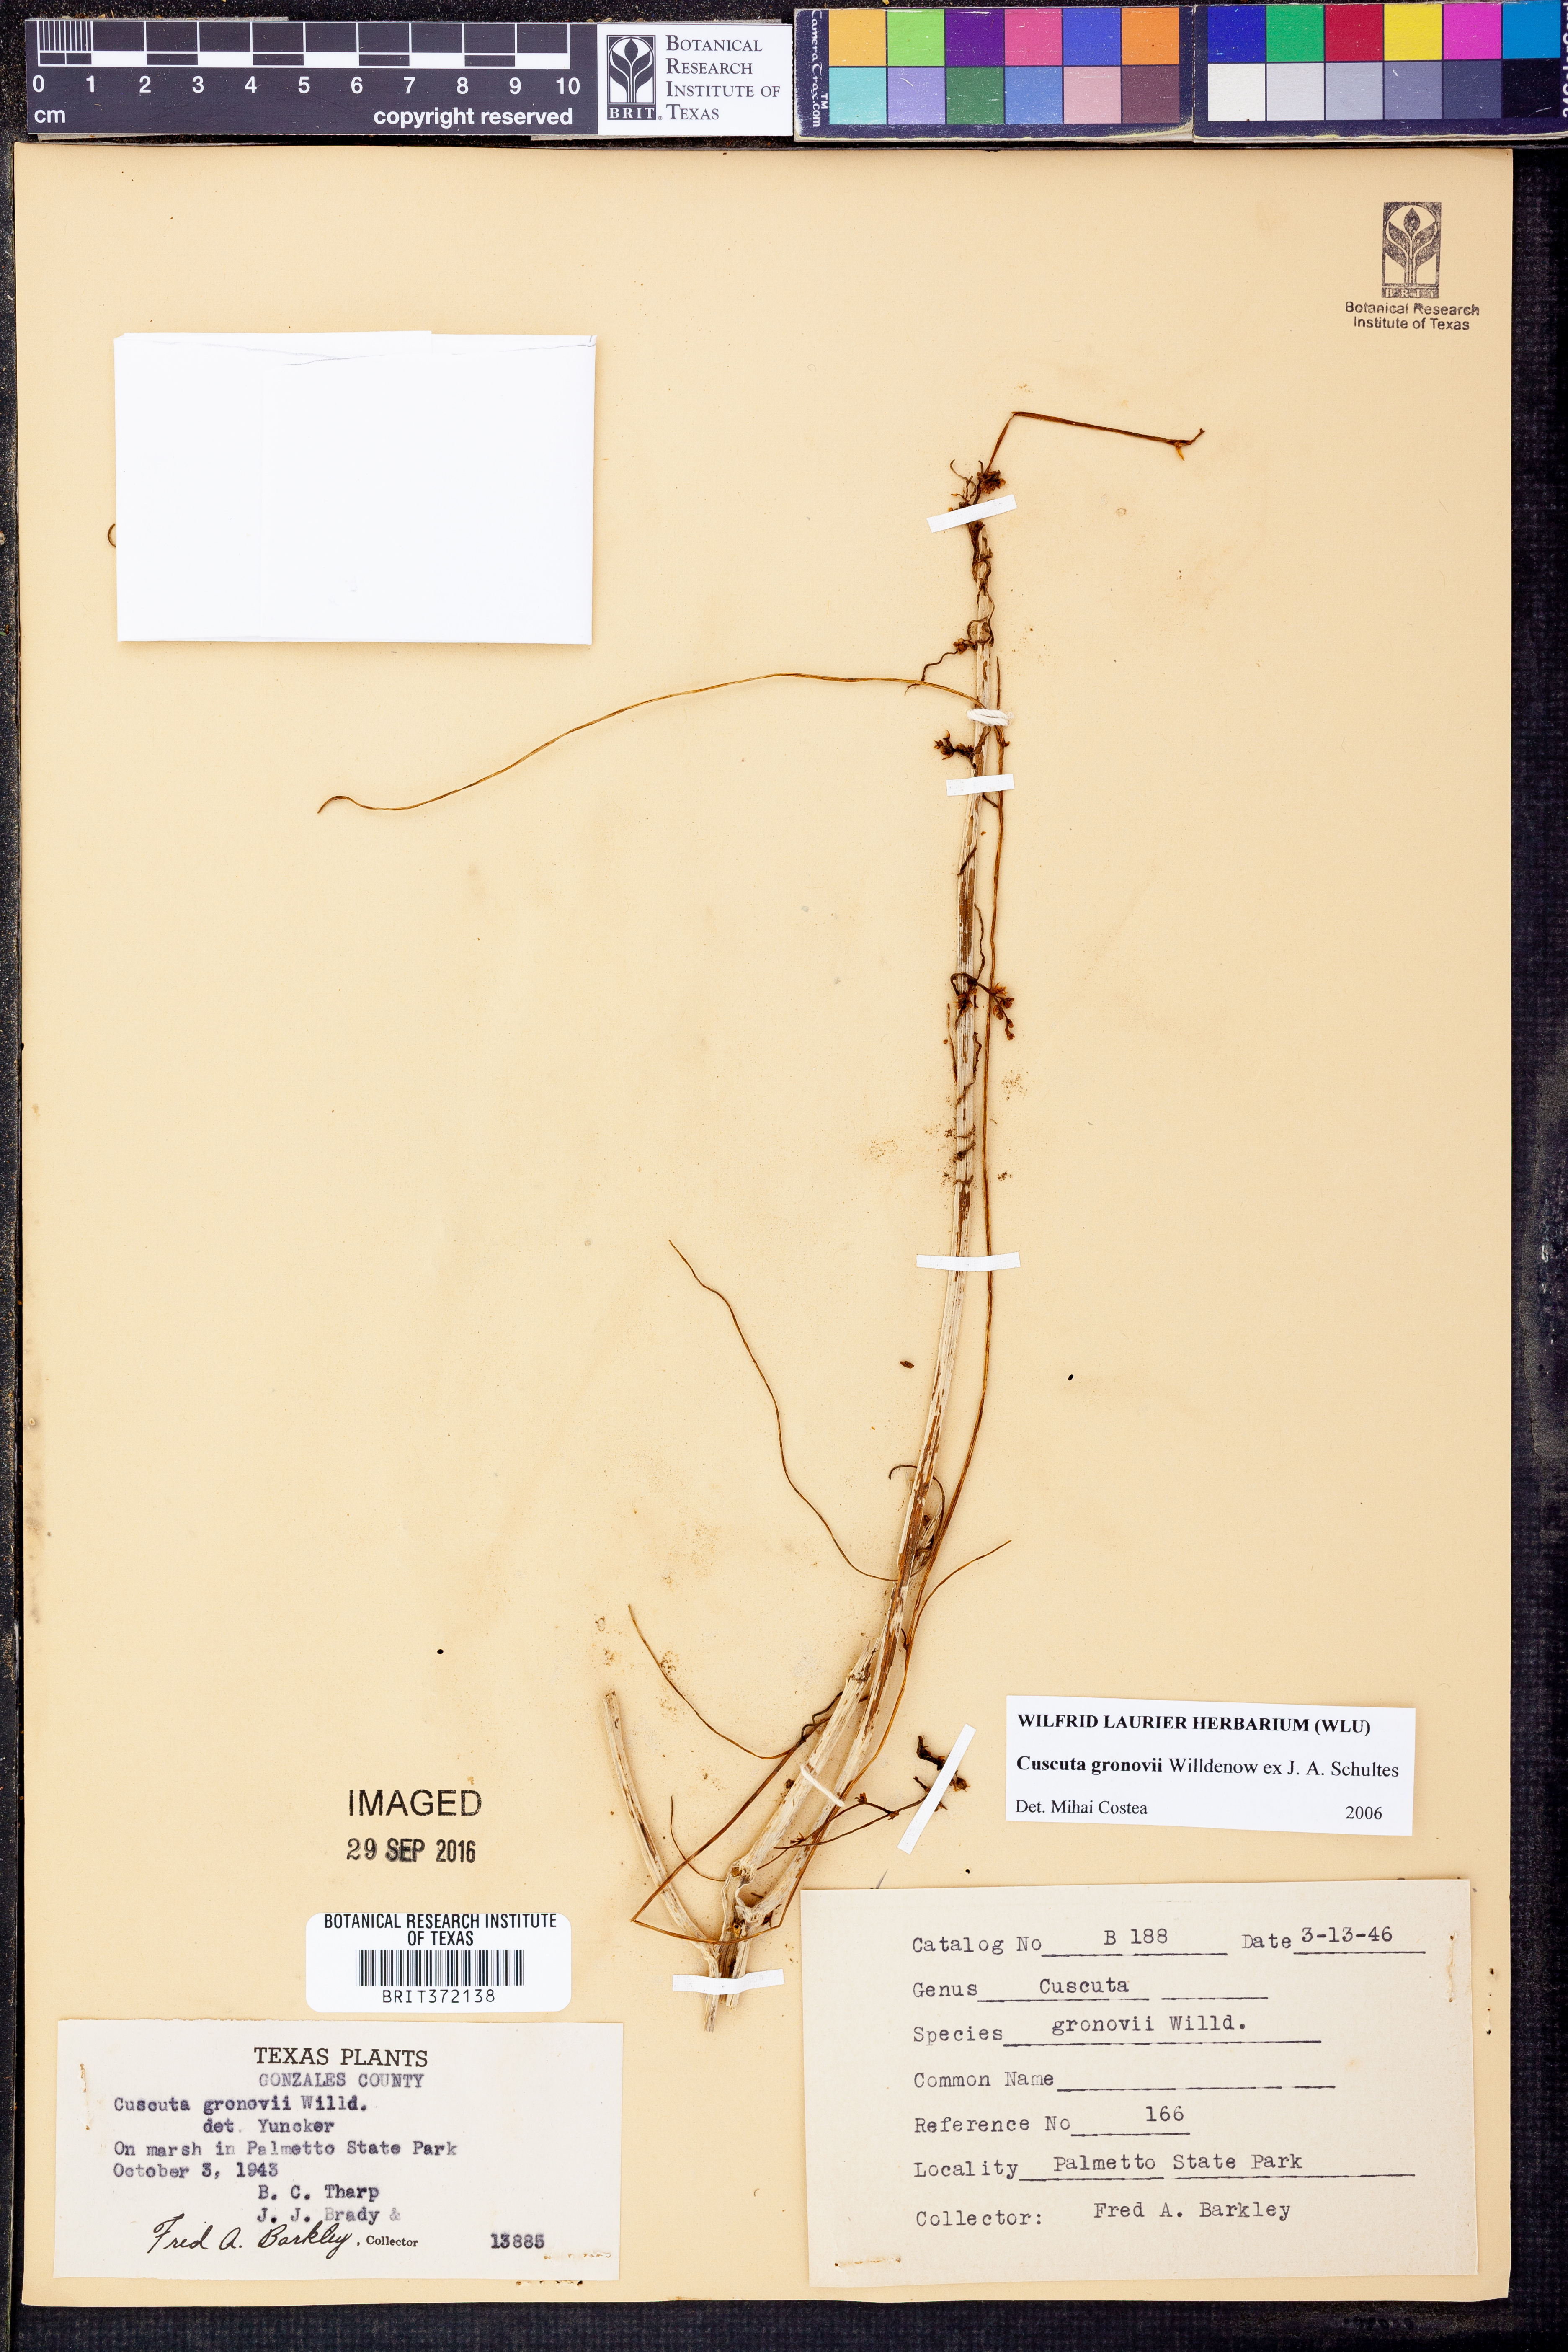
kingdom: Plantae
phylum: Tracheophyta
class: Magnoliopsida
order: Solanales
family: Convolvulaceae
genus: Cuscuta
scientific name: Cuscuta gronovii
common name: Common dodder
